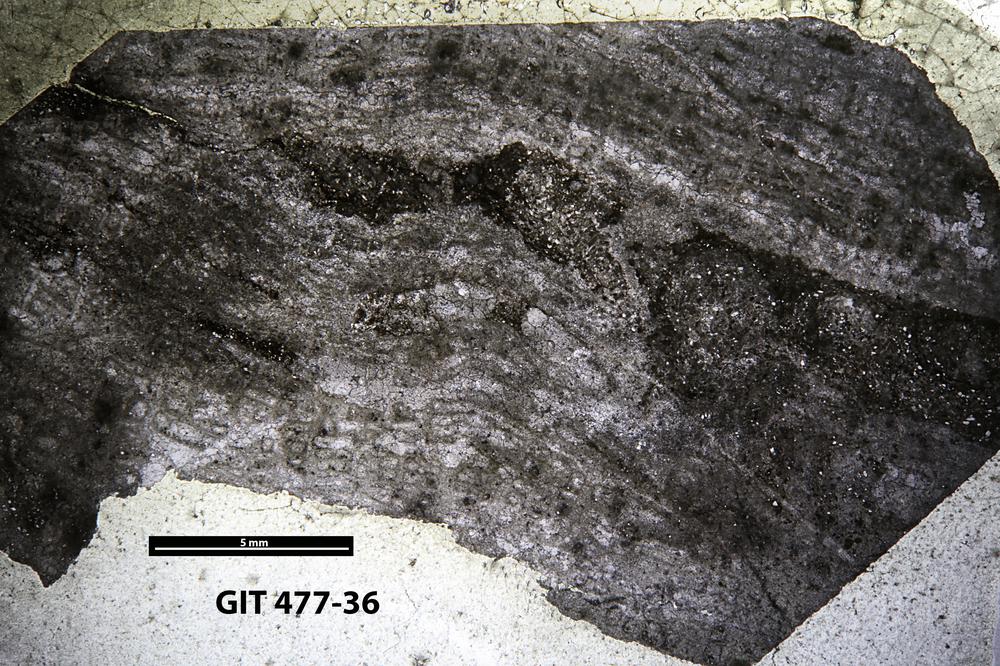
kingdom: Animalia
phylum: Porifera
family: Labechiidae
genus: Stromatocerium
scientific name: Stromatocerium rugosum
